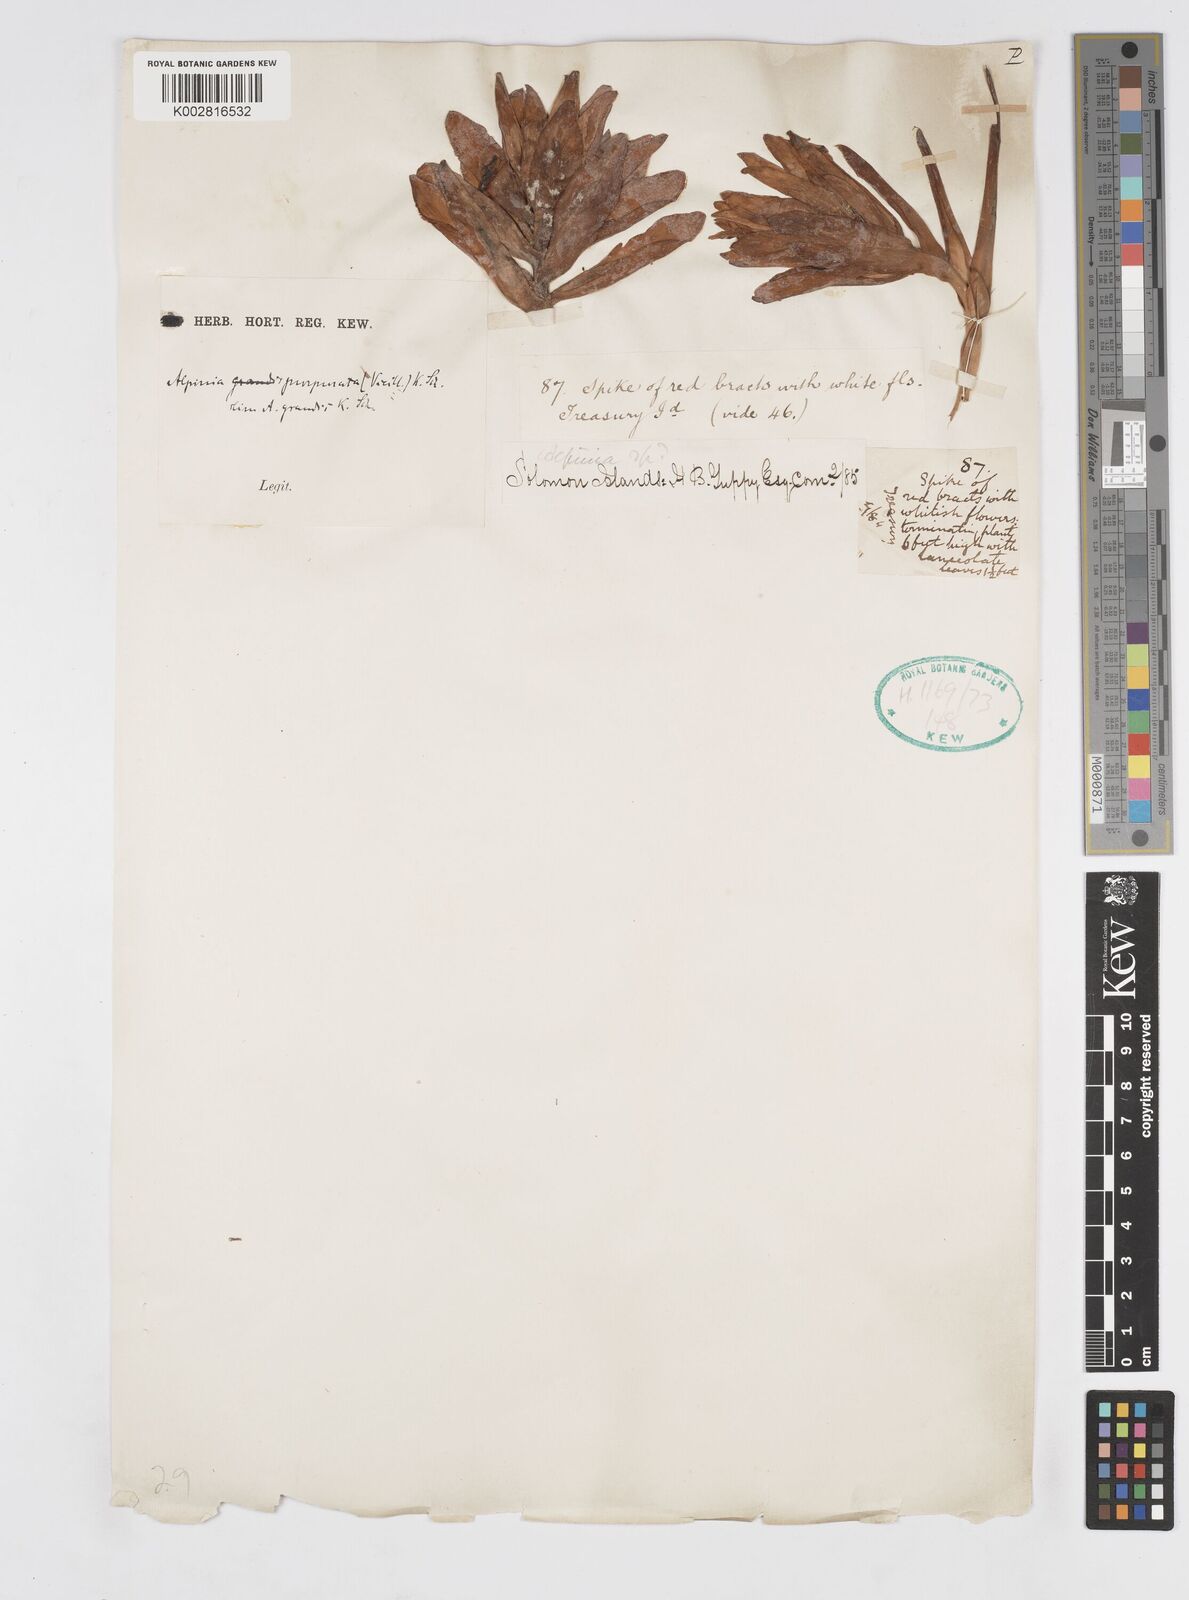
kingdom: Plantae
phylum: Tracheophyta
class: Liliopsida
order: Zingiberales
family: Zingiberaceae
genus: Alpinia
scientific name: Alpinia purpurata
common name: Red ginger
